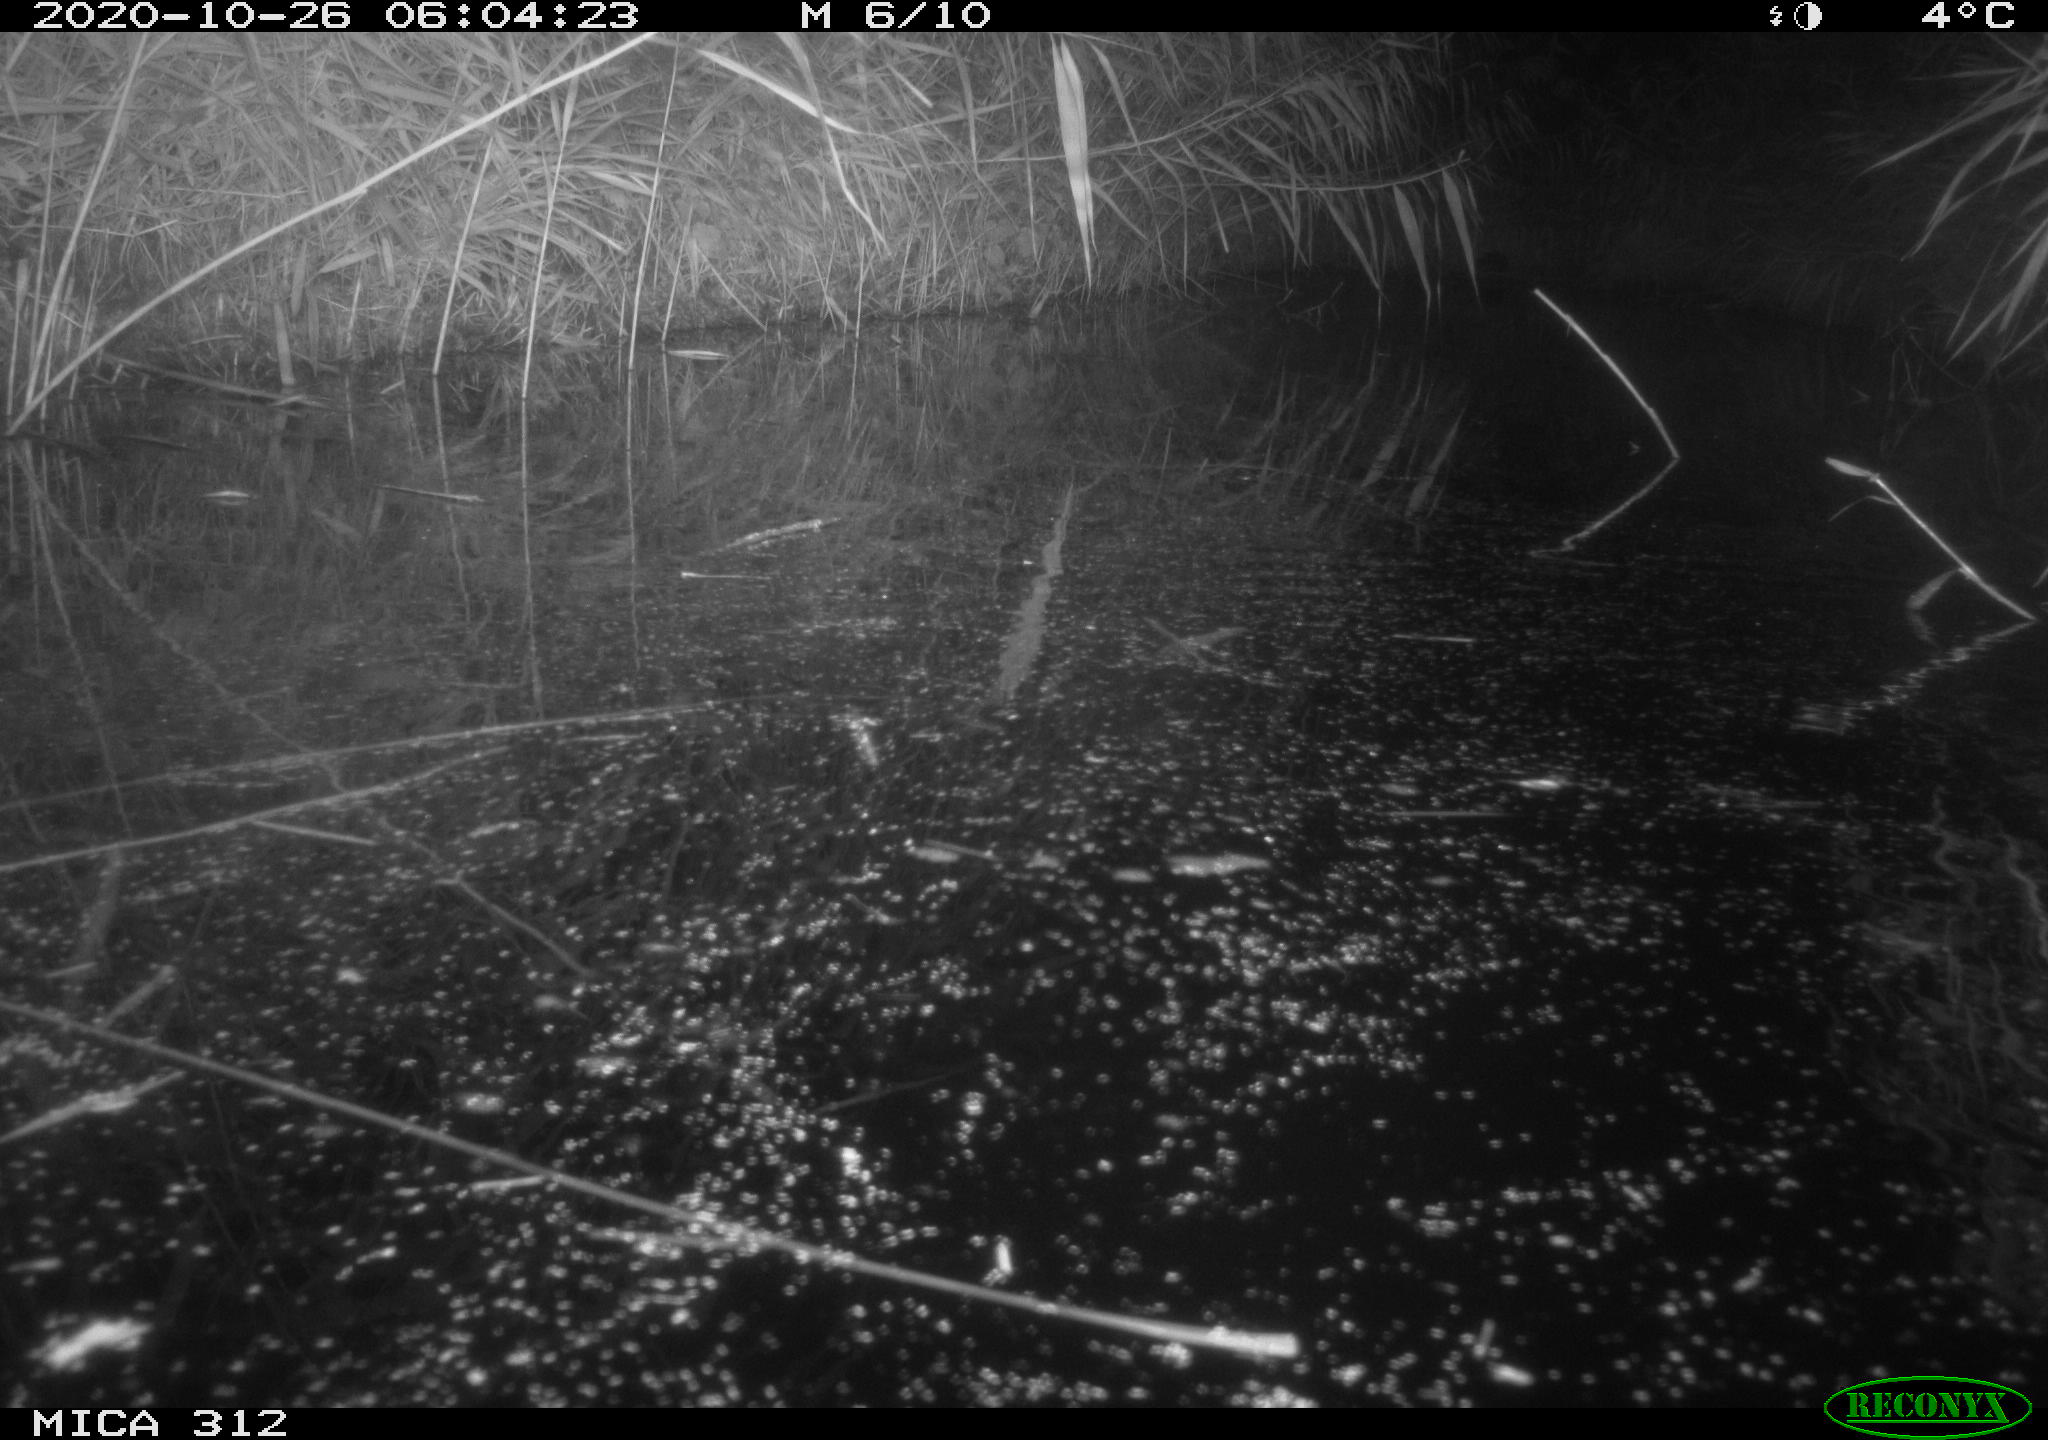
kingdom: Animalia
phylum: Chordata
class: Mammalia
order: Rodentia
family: Muridae
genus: Rattus
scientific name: Rattus norvegicus
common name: Brown rat
